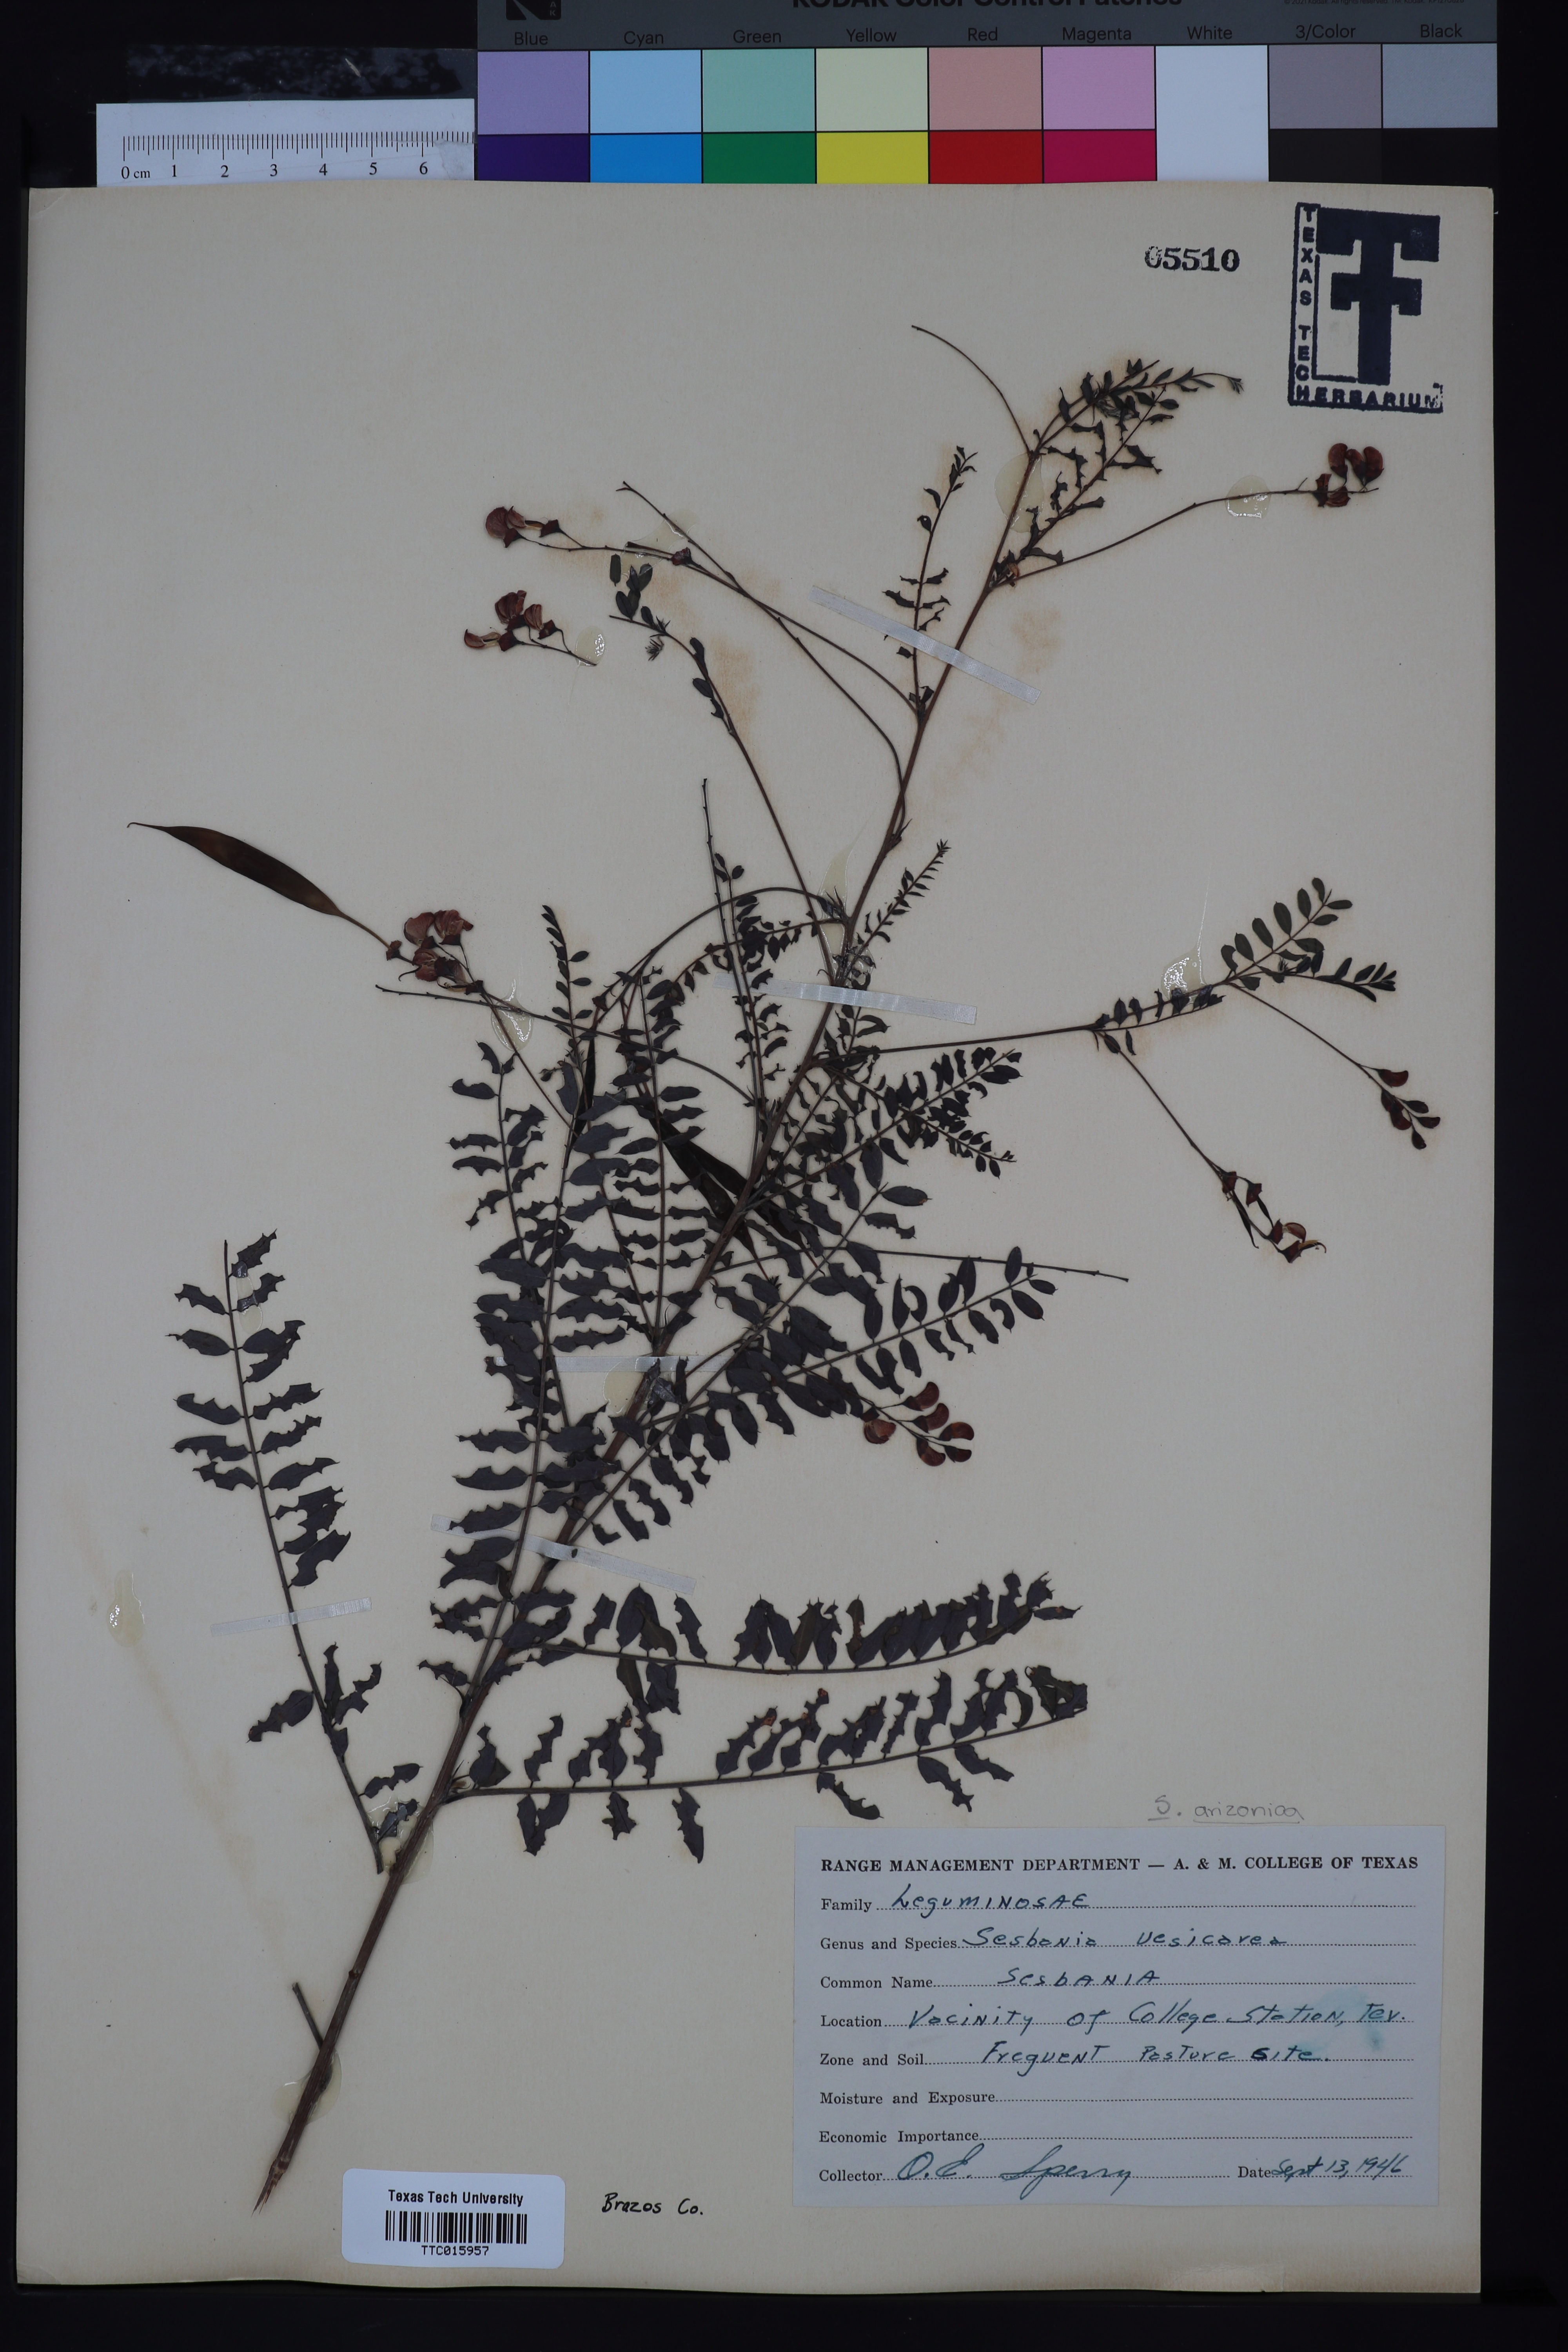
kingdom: Plantae
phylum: Tracheophyta
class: Magnoliopsida
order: Fabales
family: Fabaceae
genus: Sesbania
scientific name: Sesbania vesicaria
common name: Bagpod
